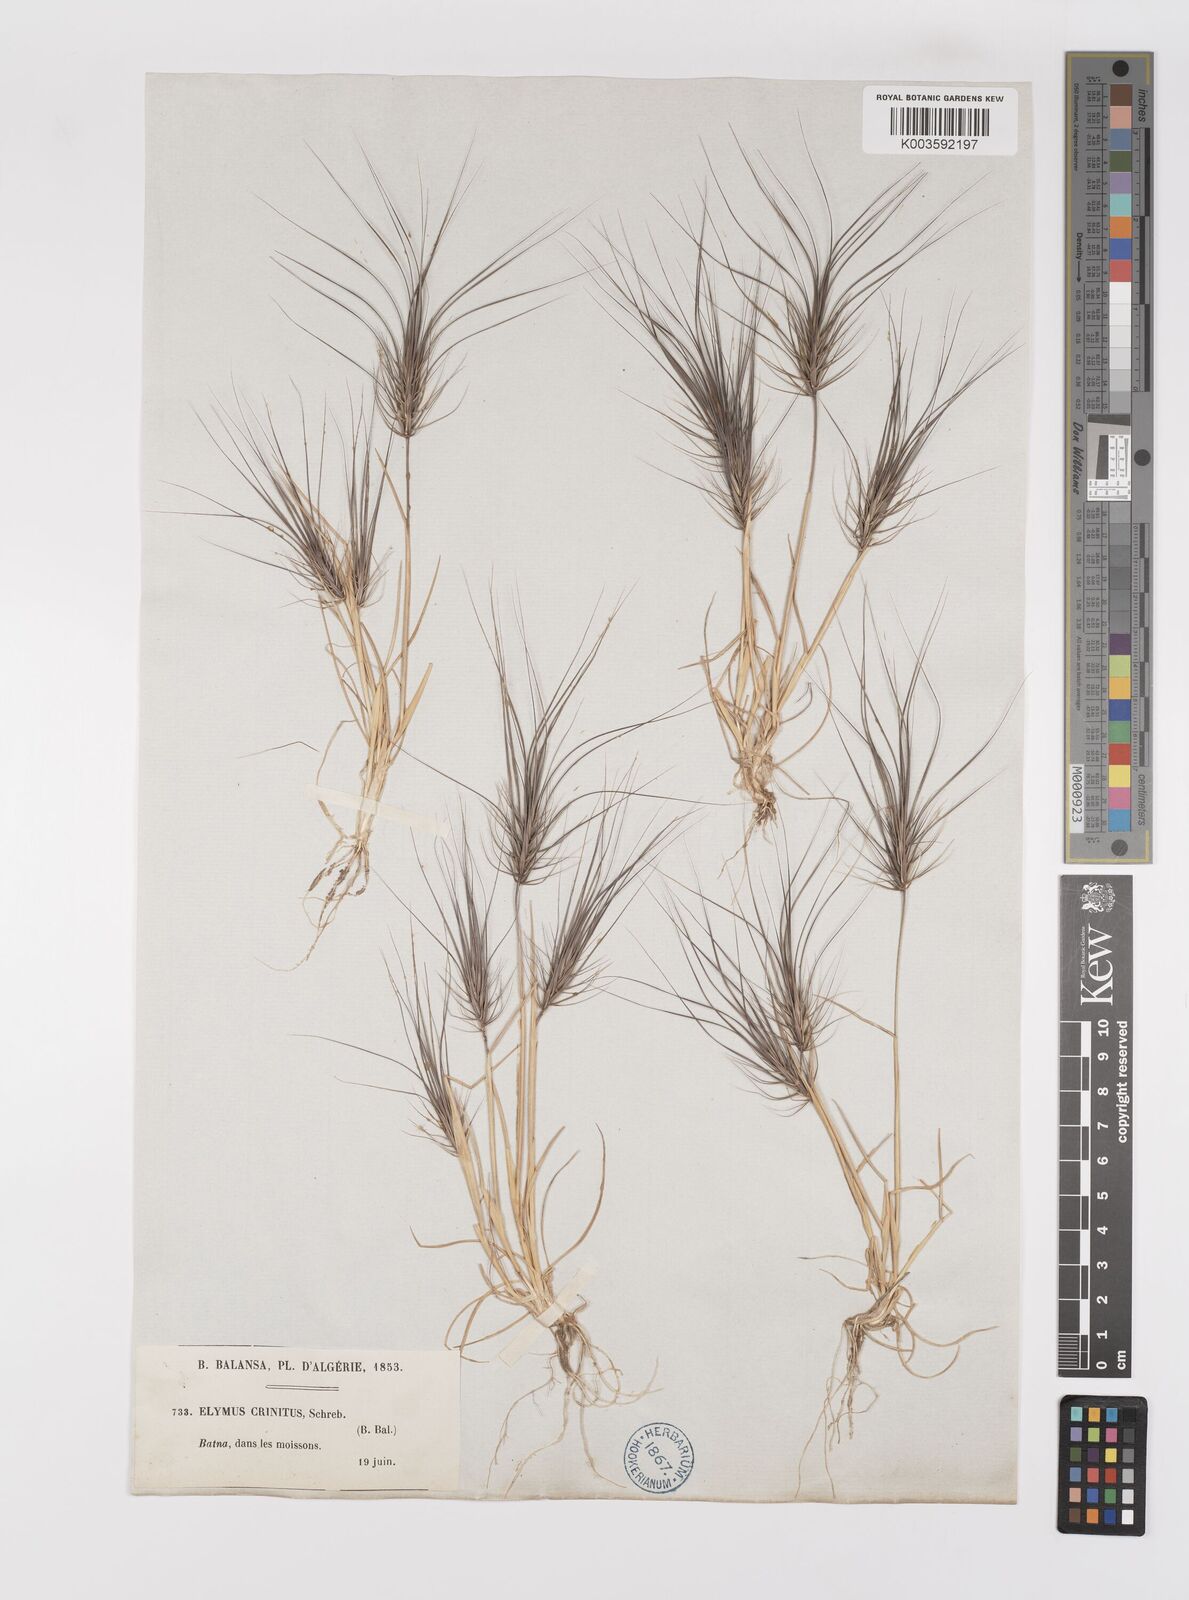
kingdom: Plantae
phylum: Tracheophyta
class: Liliopsida
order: Poales
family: Poaceae
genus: Taeniatherum
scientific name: Taeniatherum caput-medusae
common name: Medusahead
